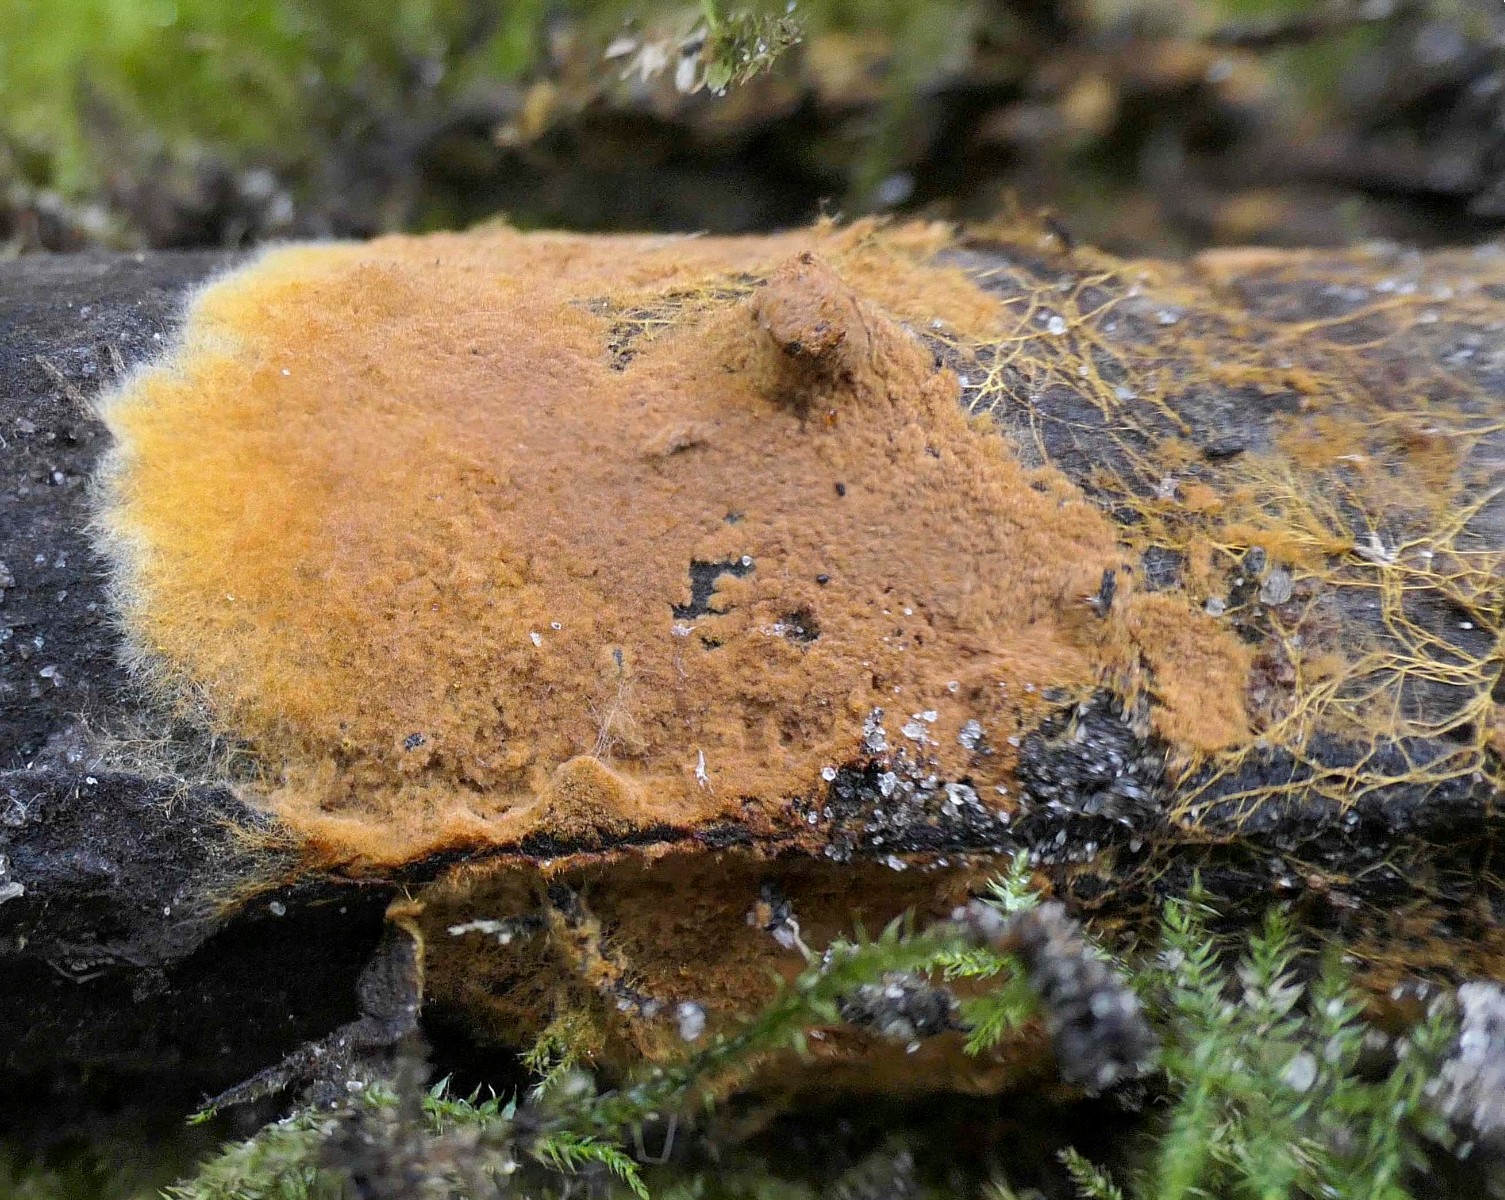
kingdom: Fungi
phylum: Basidiomycota
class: Agaricomycetes
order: Thelephorales
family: Thelephoraceae
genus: Tomentella
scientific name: Tomentella
